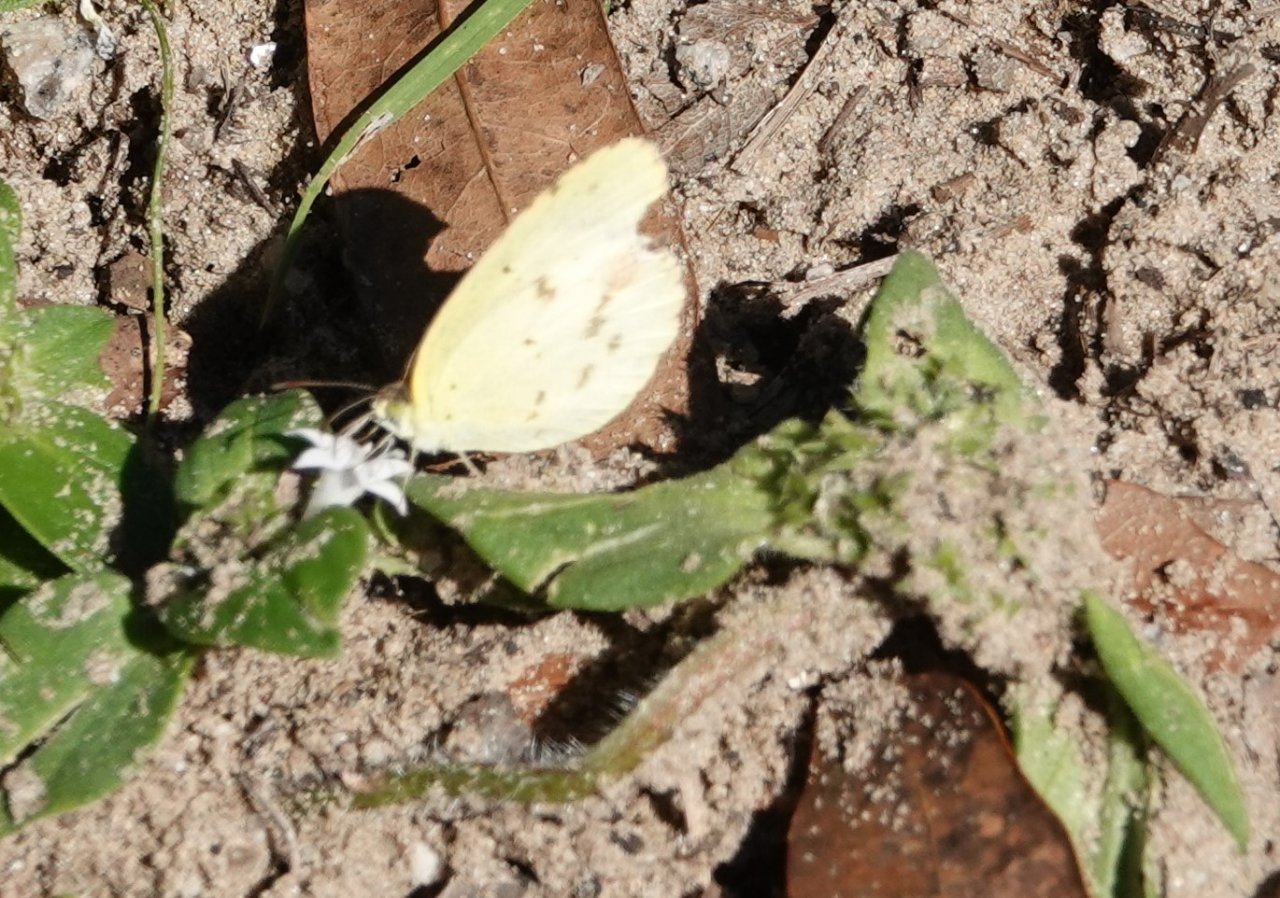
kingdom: Animalia
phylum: Arthropoda
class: Insecta
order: Lepidoptera
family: Pieridae
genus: Pyrisitia
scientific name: Pyrisitia lisa
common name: Little Yellow
